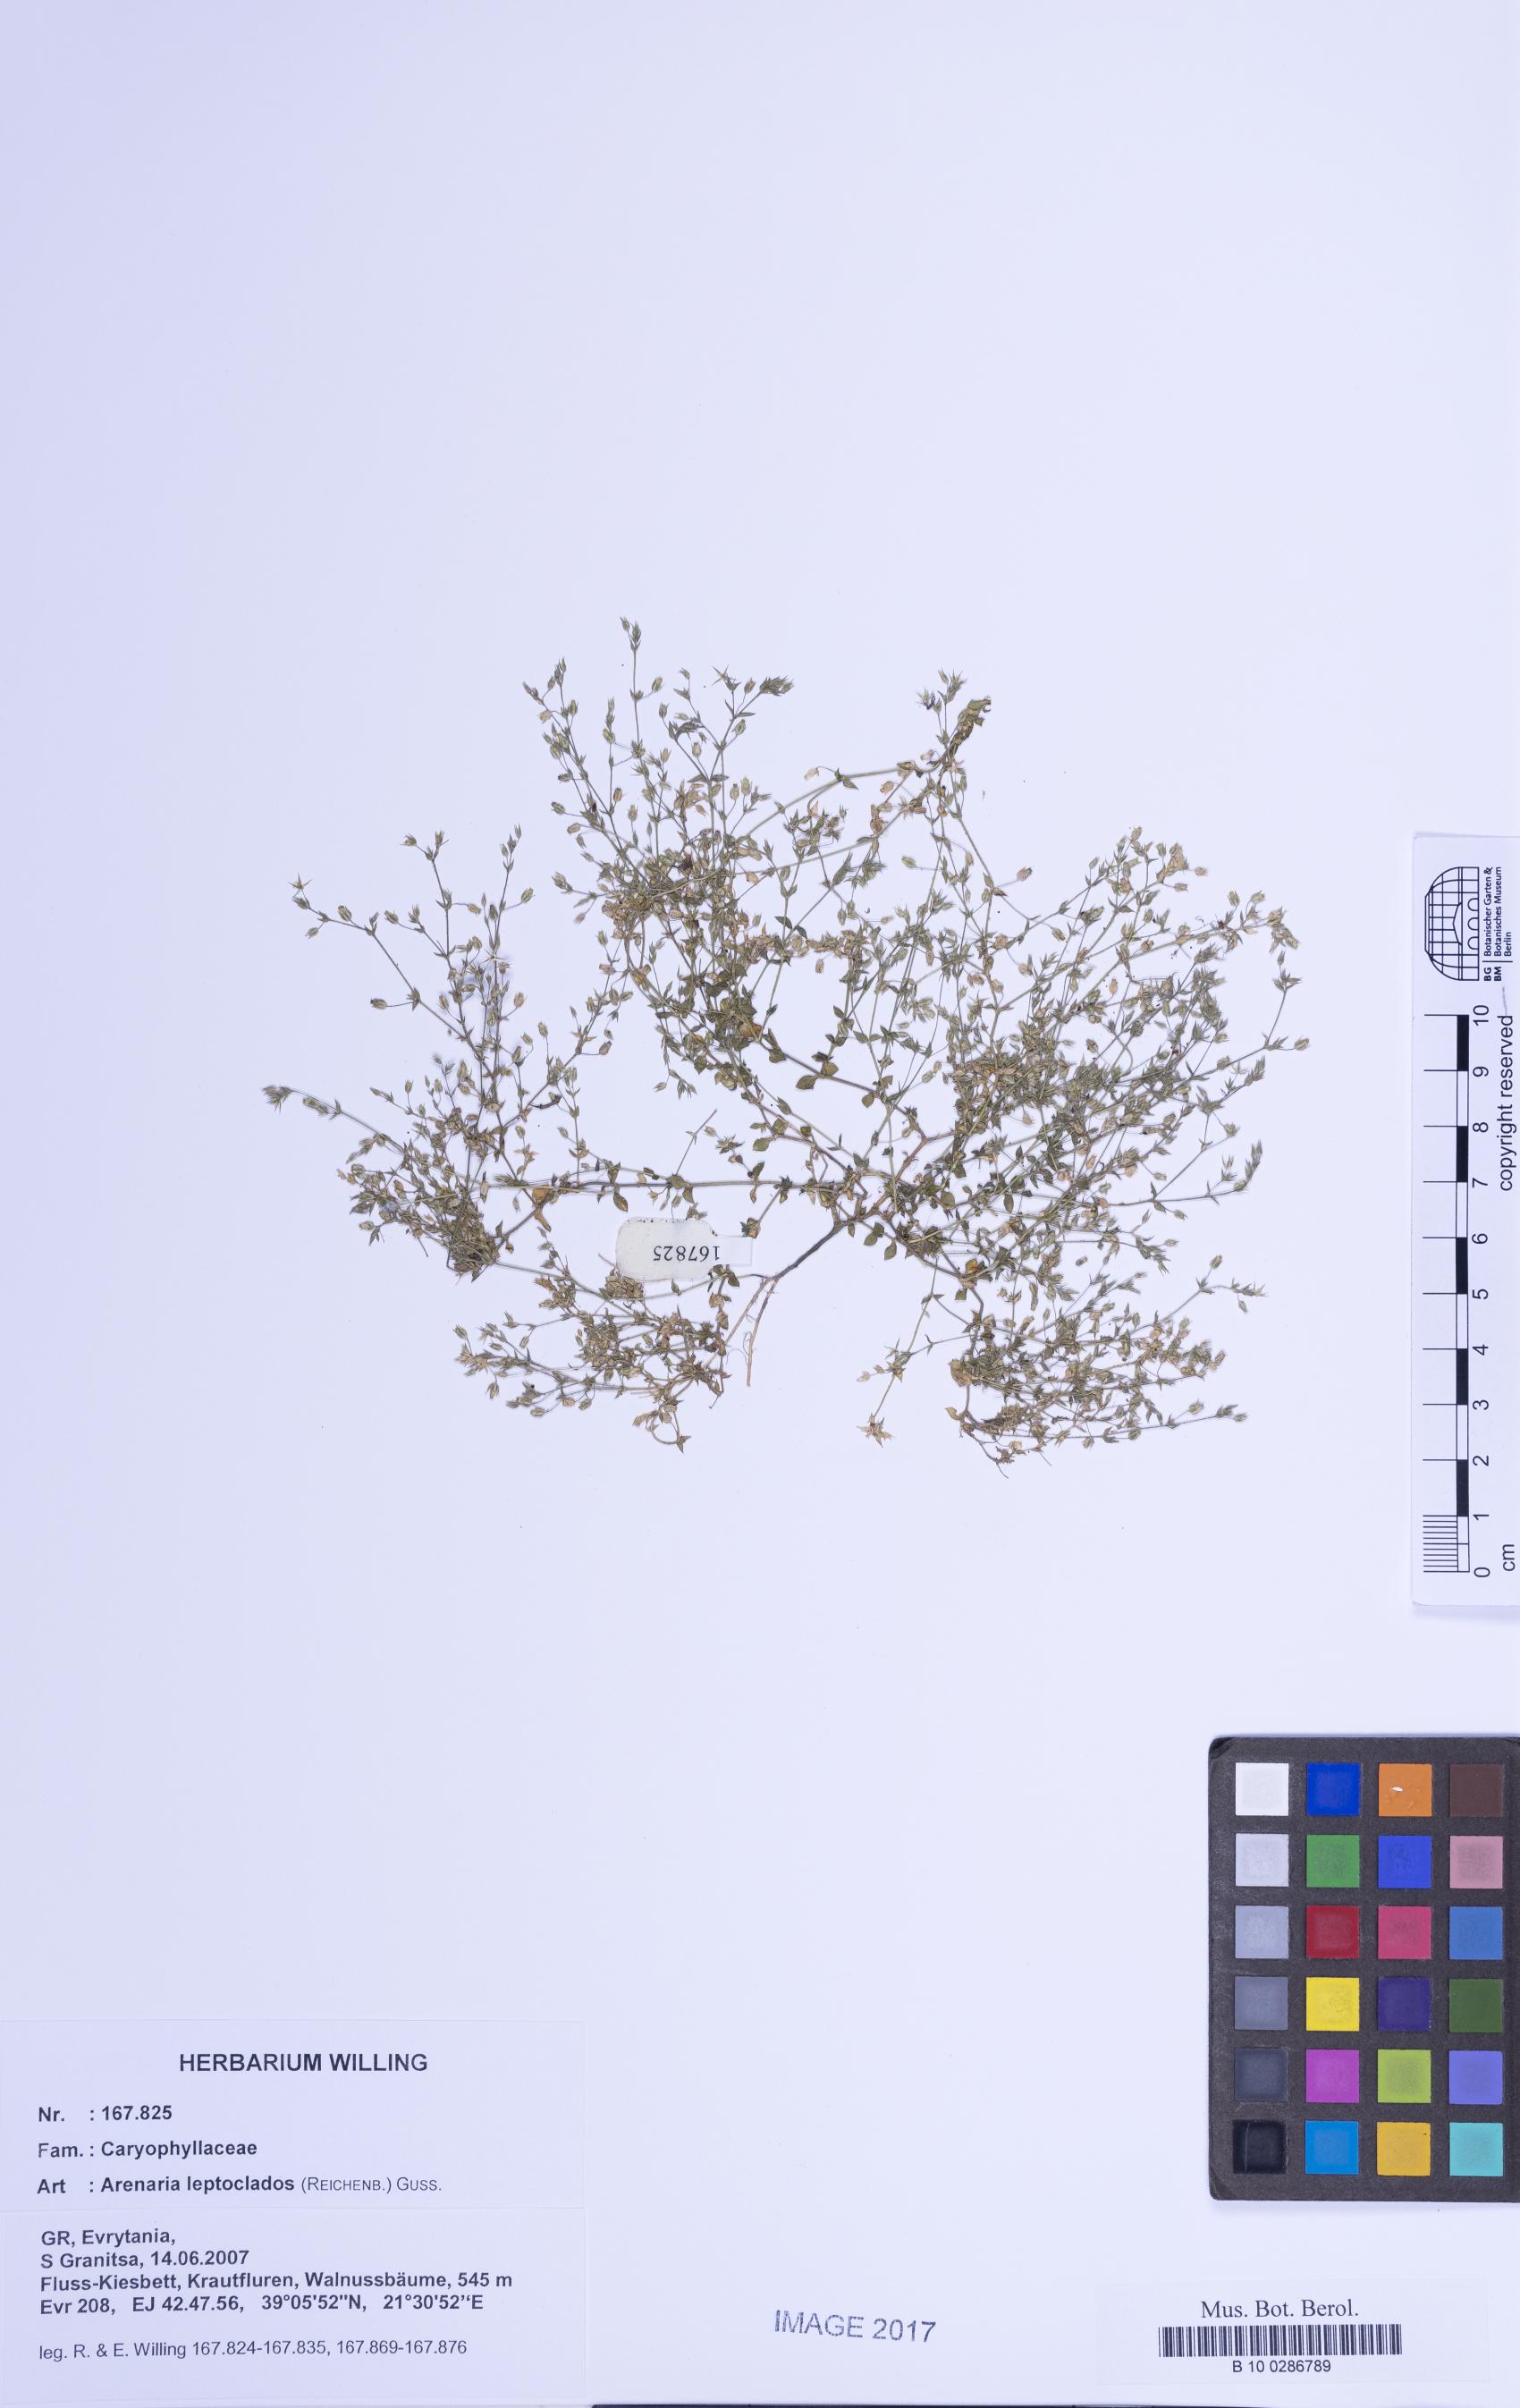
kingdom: Plantae
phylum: Tracheophyta
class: Magnoliopsida
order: Caryophyllales
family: Caryophyllaceae
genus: Arenaria
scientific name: Arenaria leptoclados
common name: Thyme-leaved sandwort
